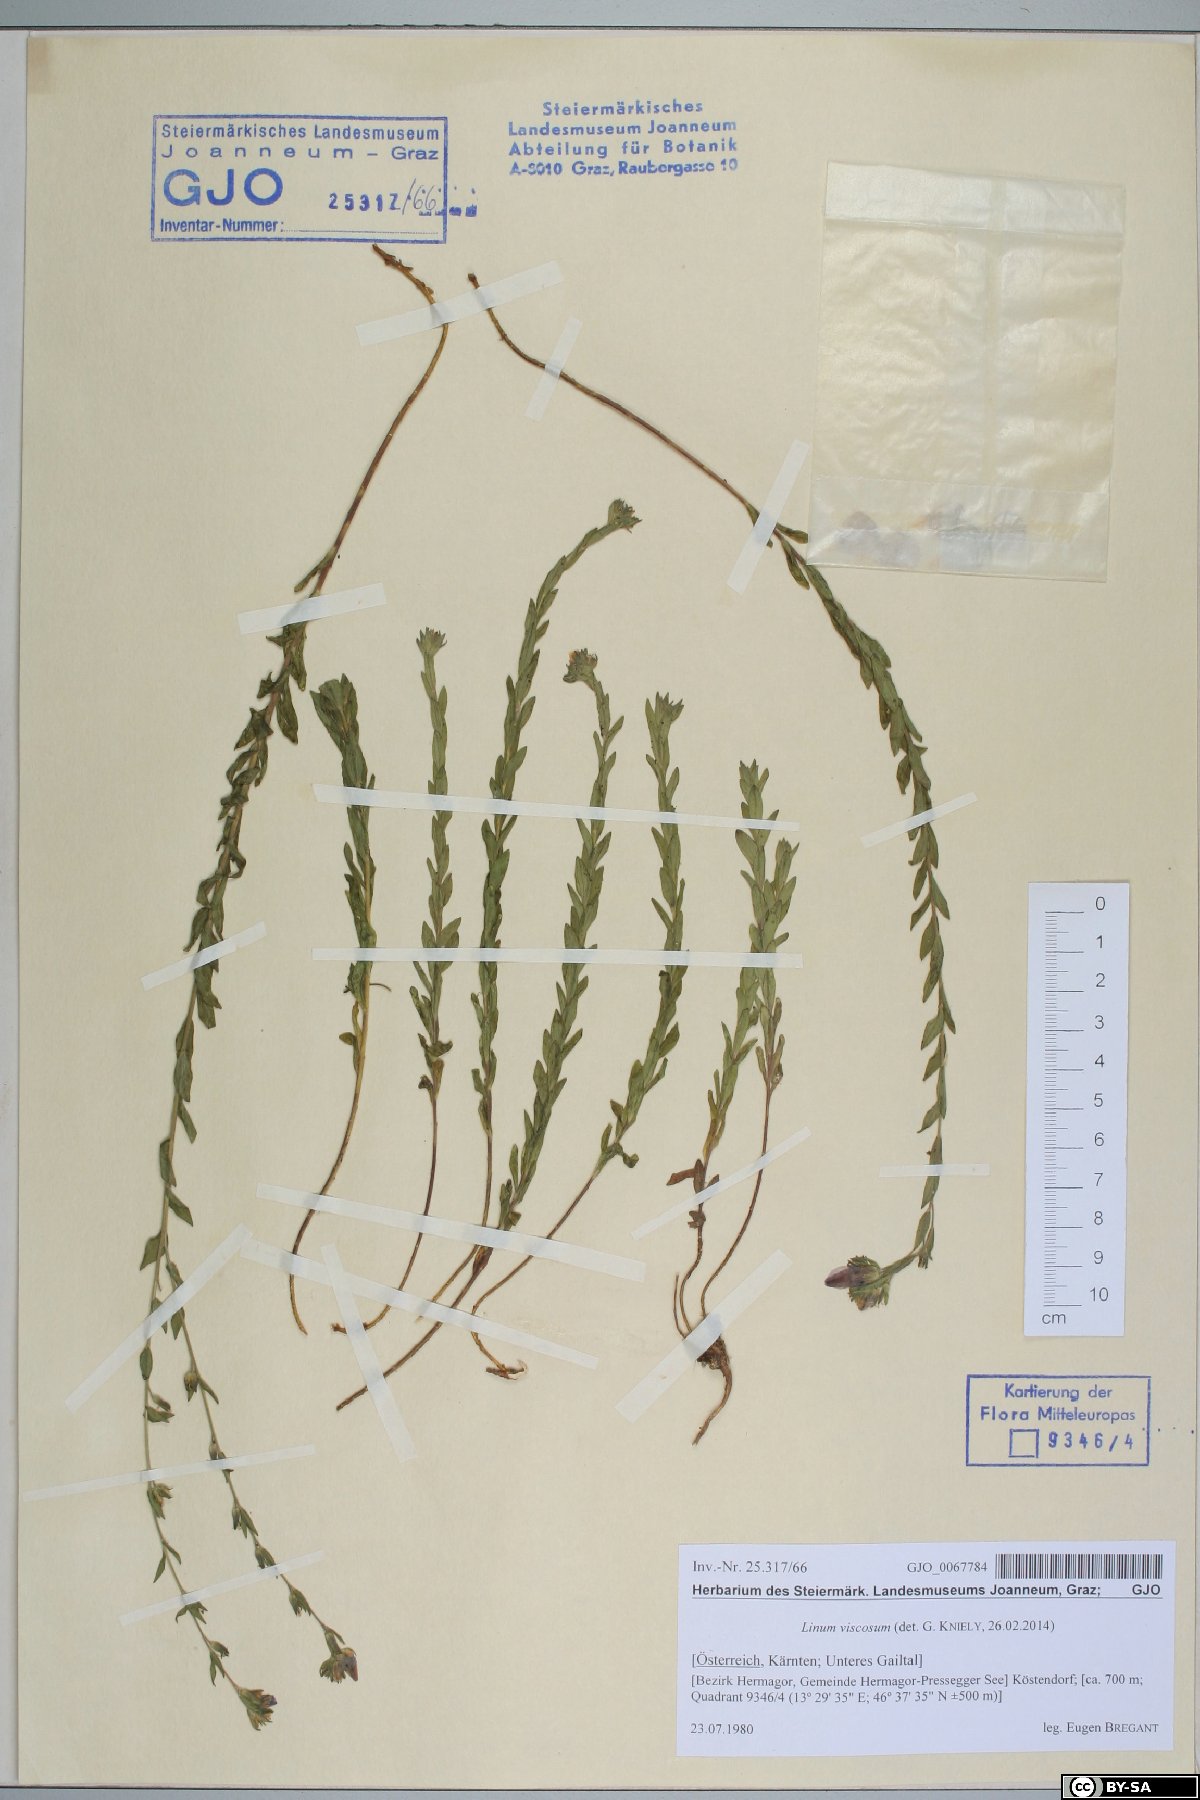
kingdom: Plantae
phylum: Tracheophyta
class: Magnoliopsida
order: Malpighiales
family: Linaceae
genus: Linum
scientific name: Linum viscosum
